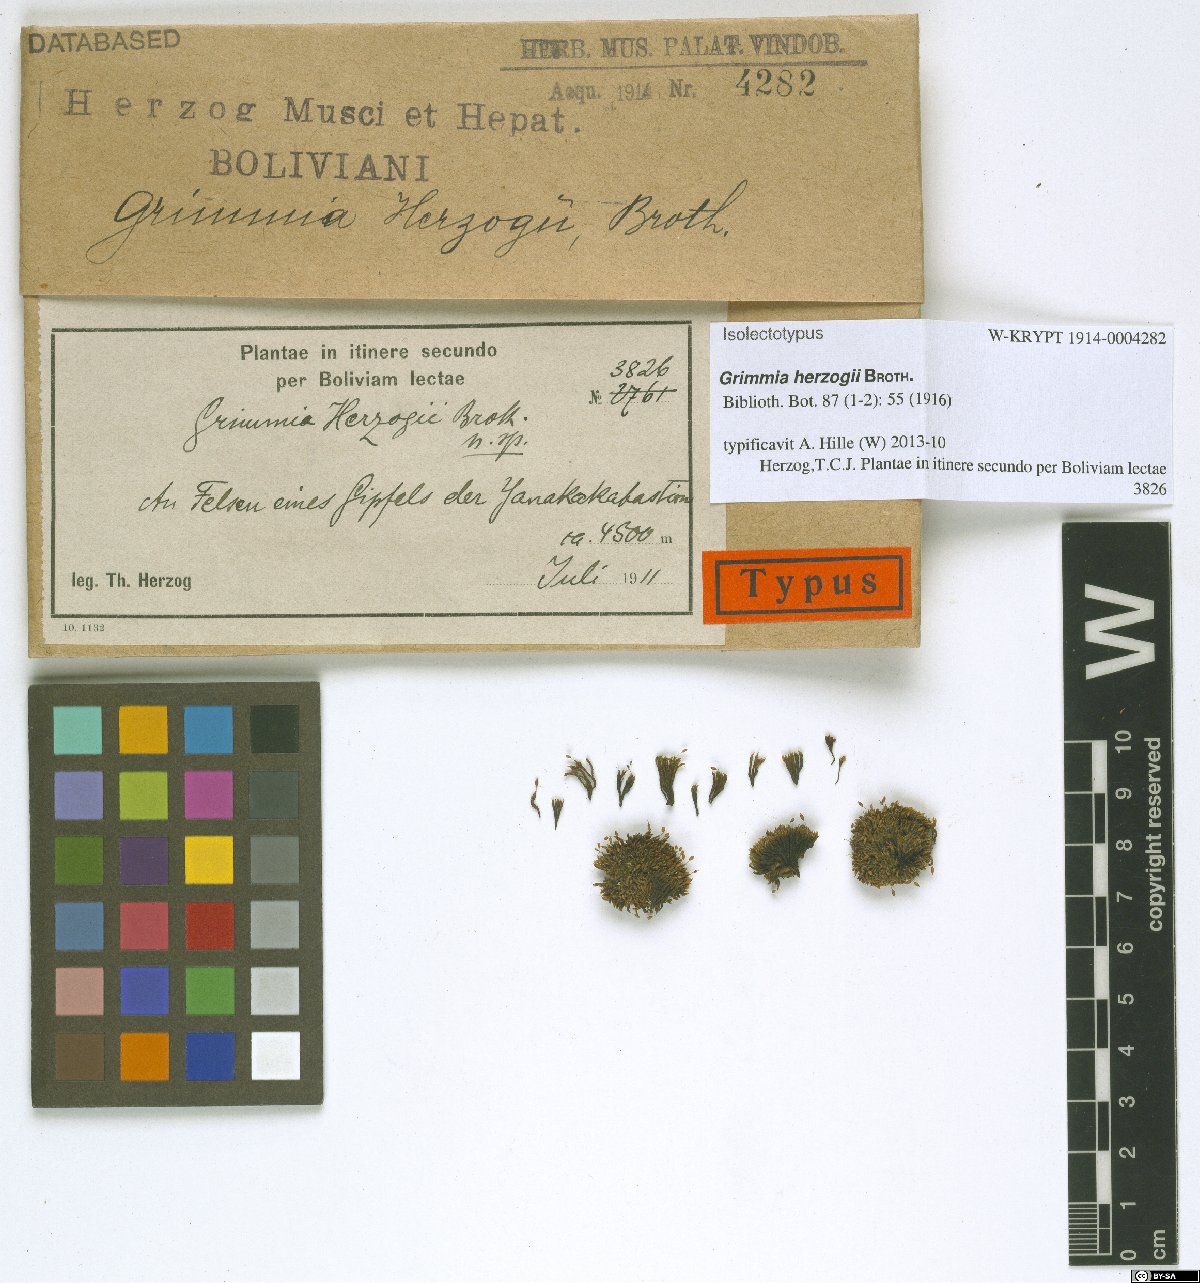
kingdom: Plantae
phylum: Bryophyta
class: Bryopsida
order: Grimmiales
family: Grimmiaceae
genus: Grimmia
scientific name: Grimmia herzogii
